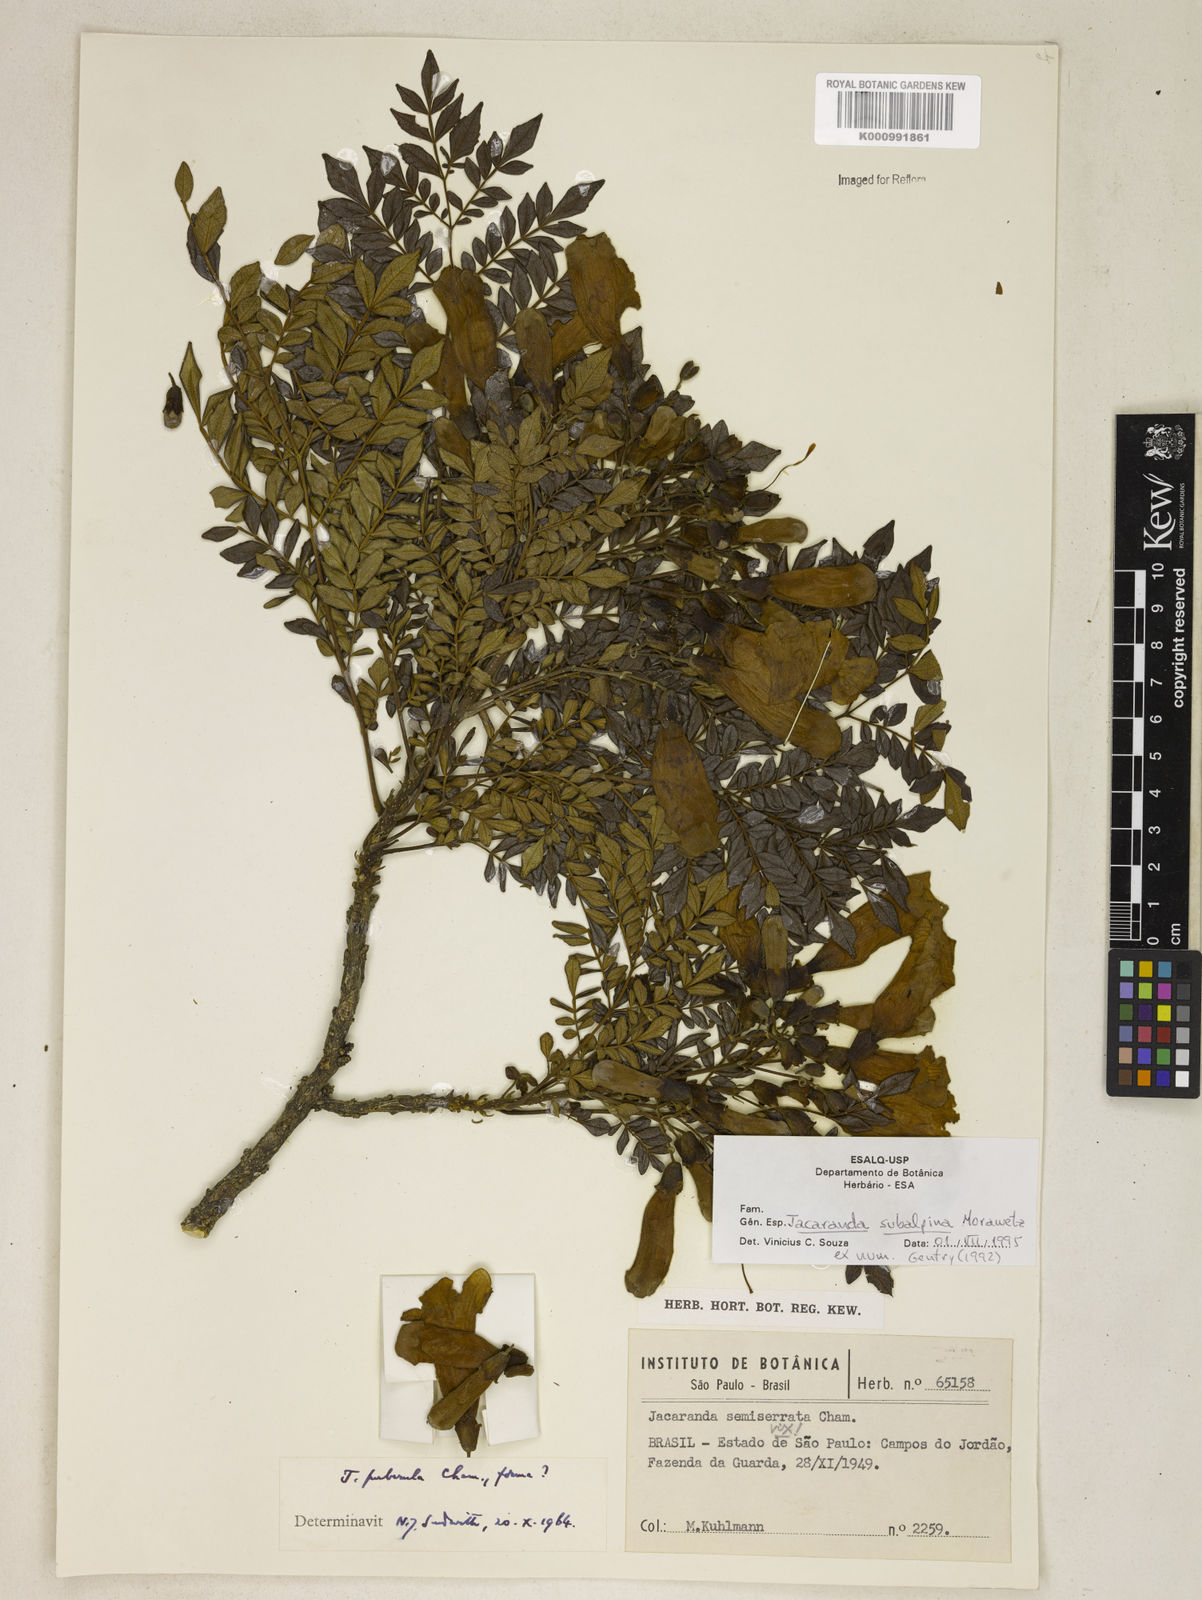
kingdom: Plantae
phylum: Tracheophyta
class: Magnoliopsida
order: Lamiales
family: Bignoniaceae
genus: Jacaranda
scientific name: Jacaranda subalpina
